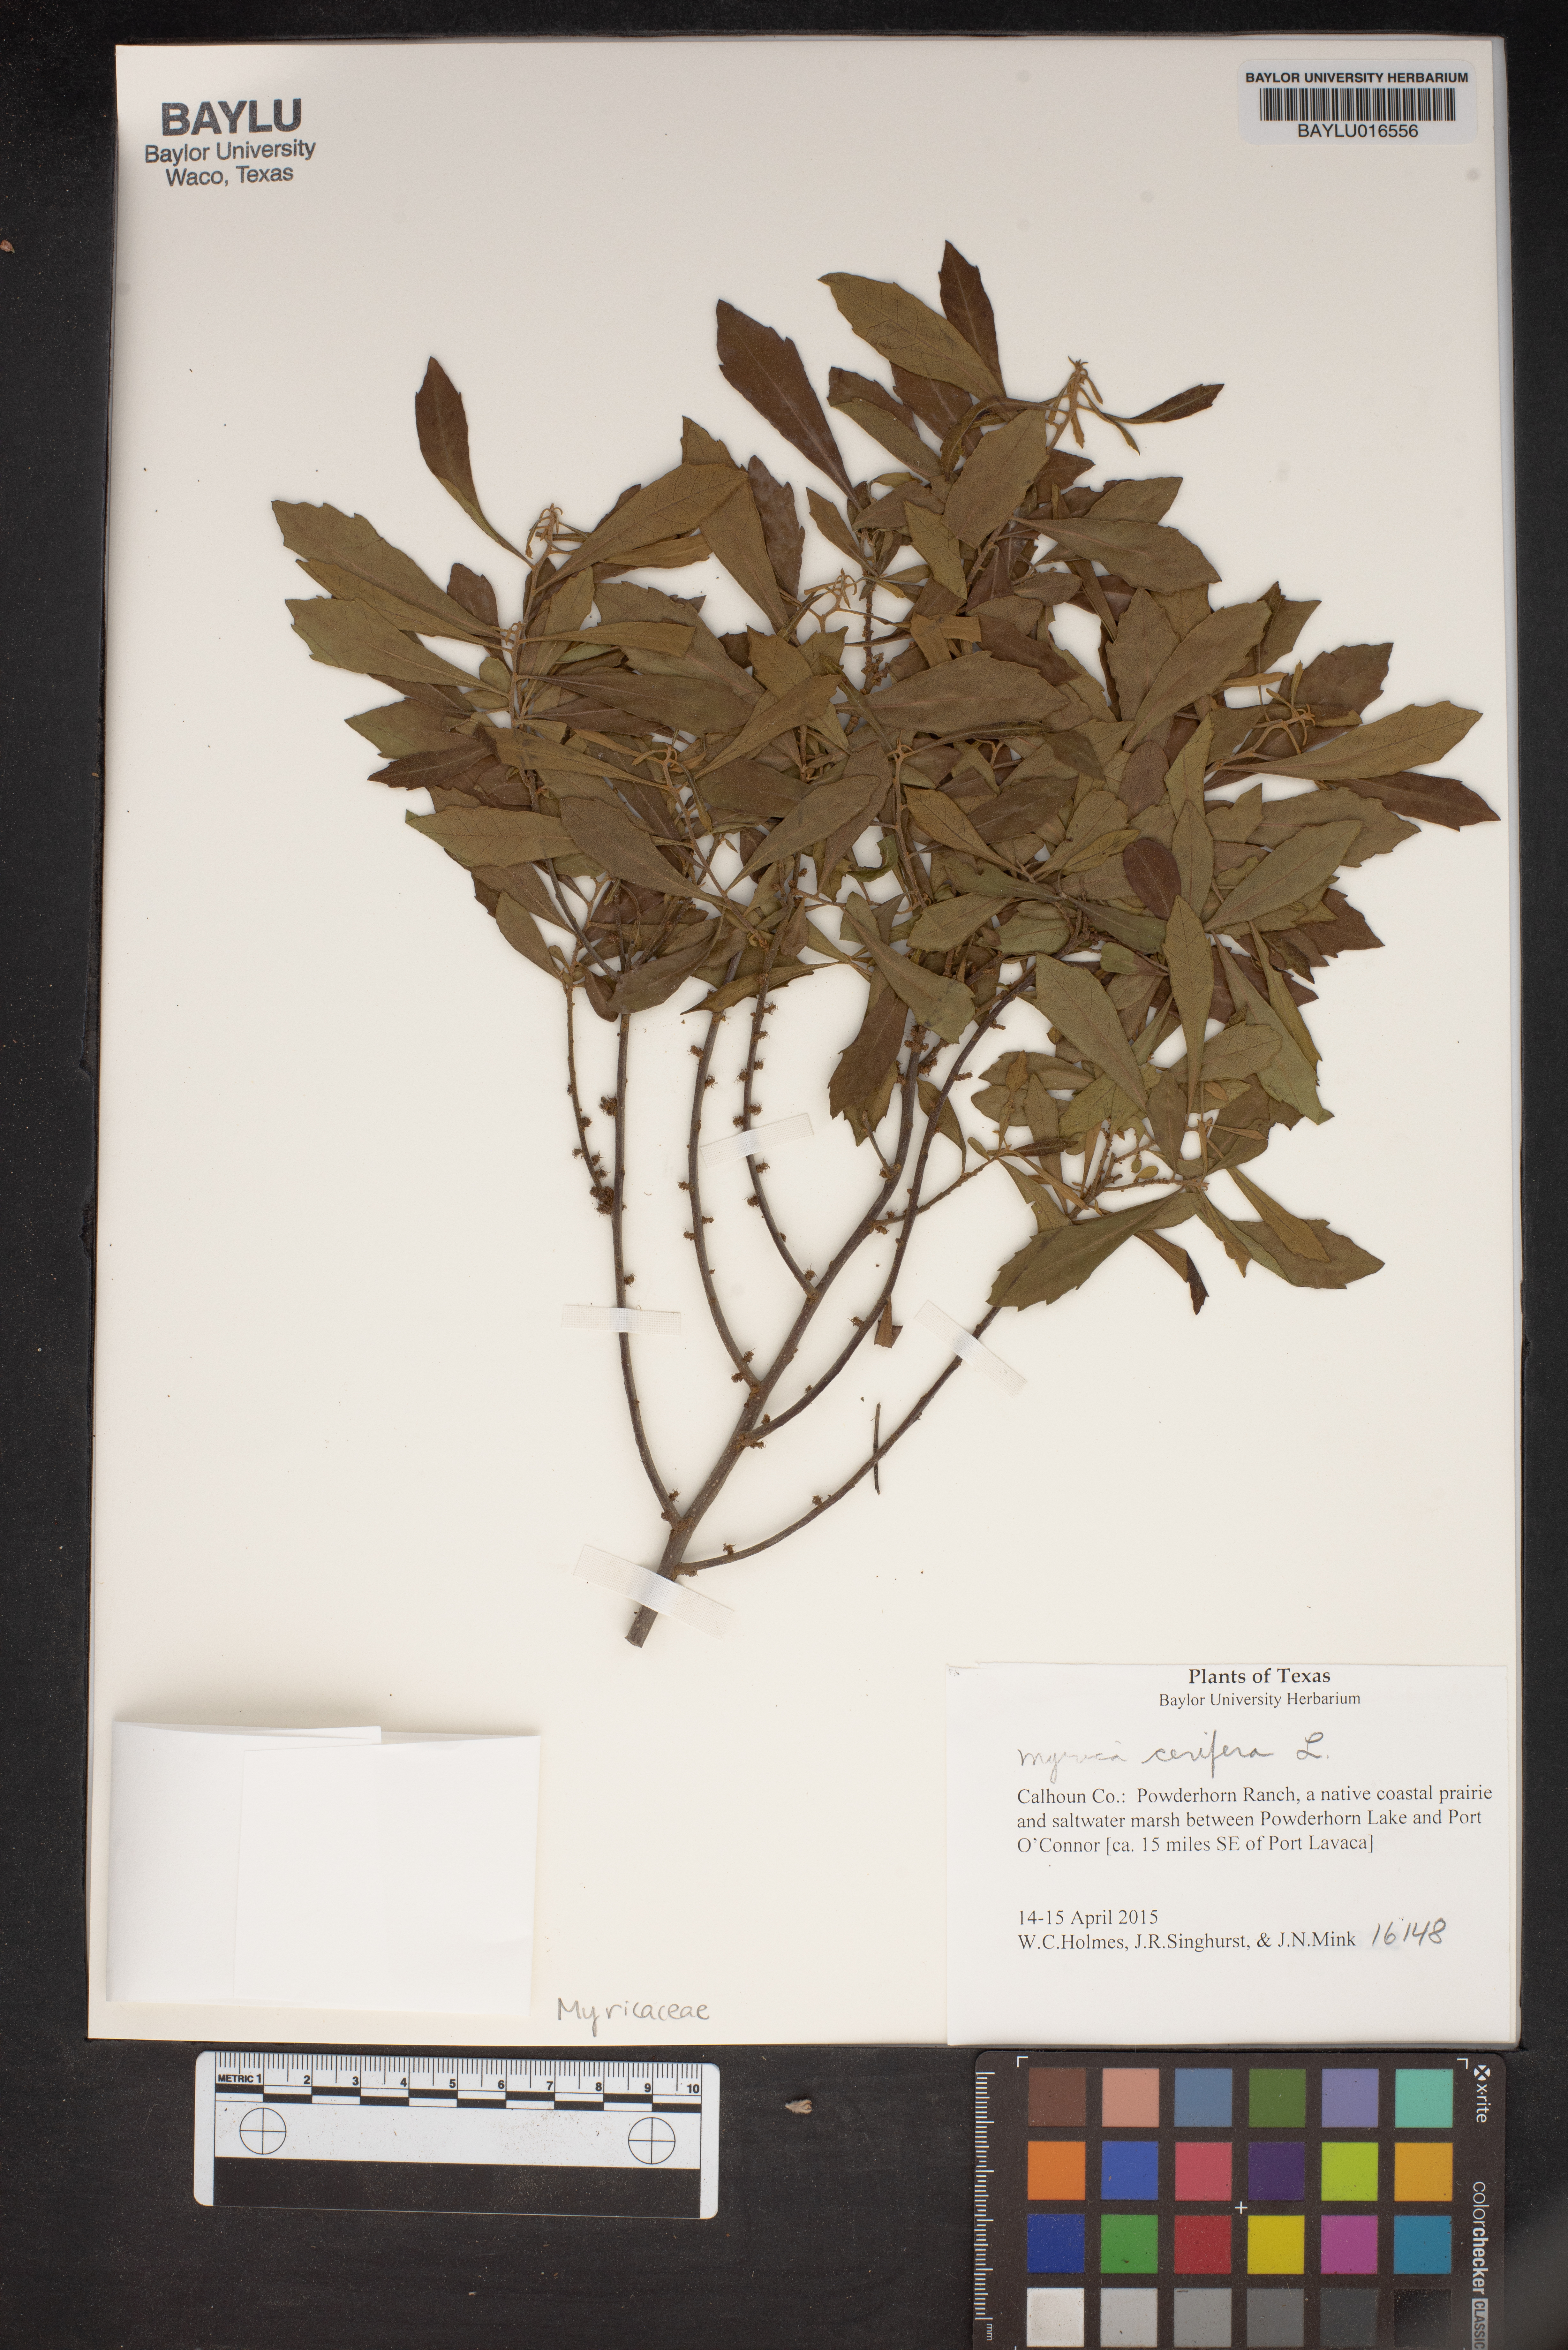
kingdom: Plantae
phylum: Tracheophyta
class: Magnoliopsida
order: Fagales
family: Myricaceae
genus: Morella
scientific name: Morella cerifera
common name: Wax myrtle
